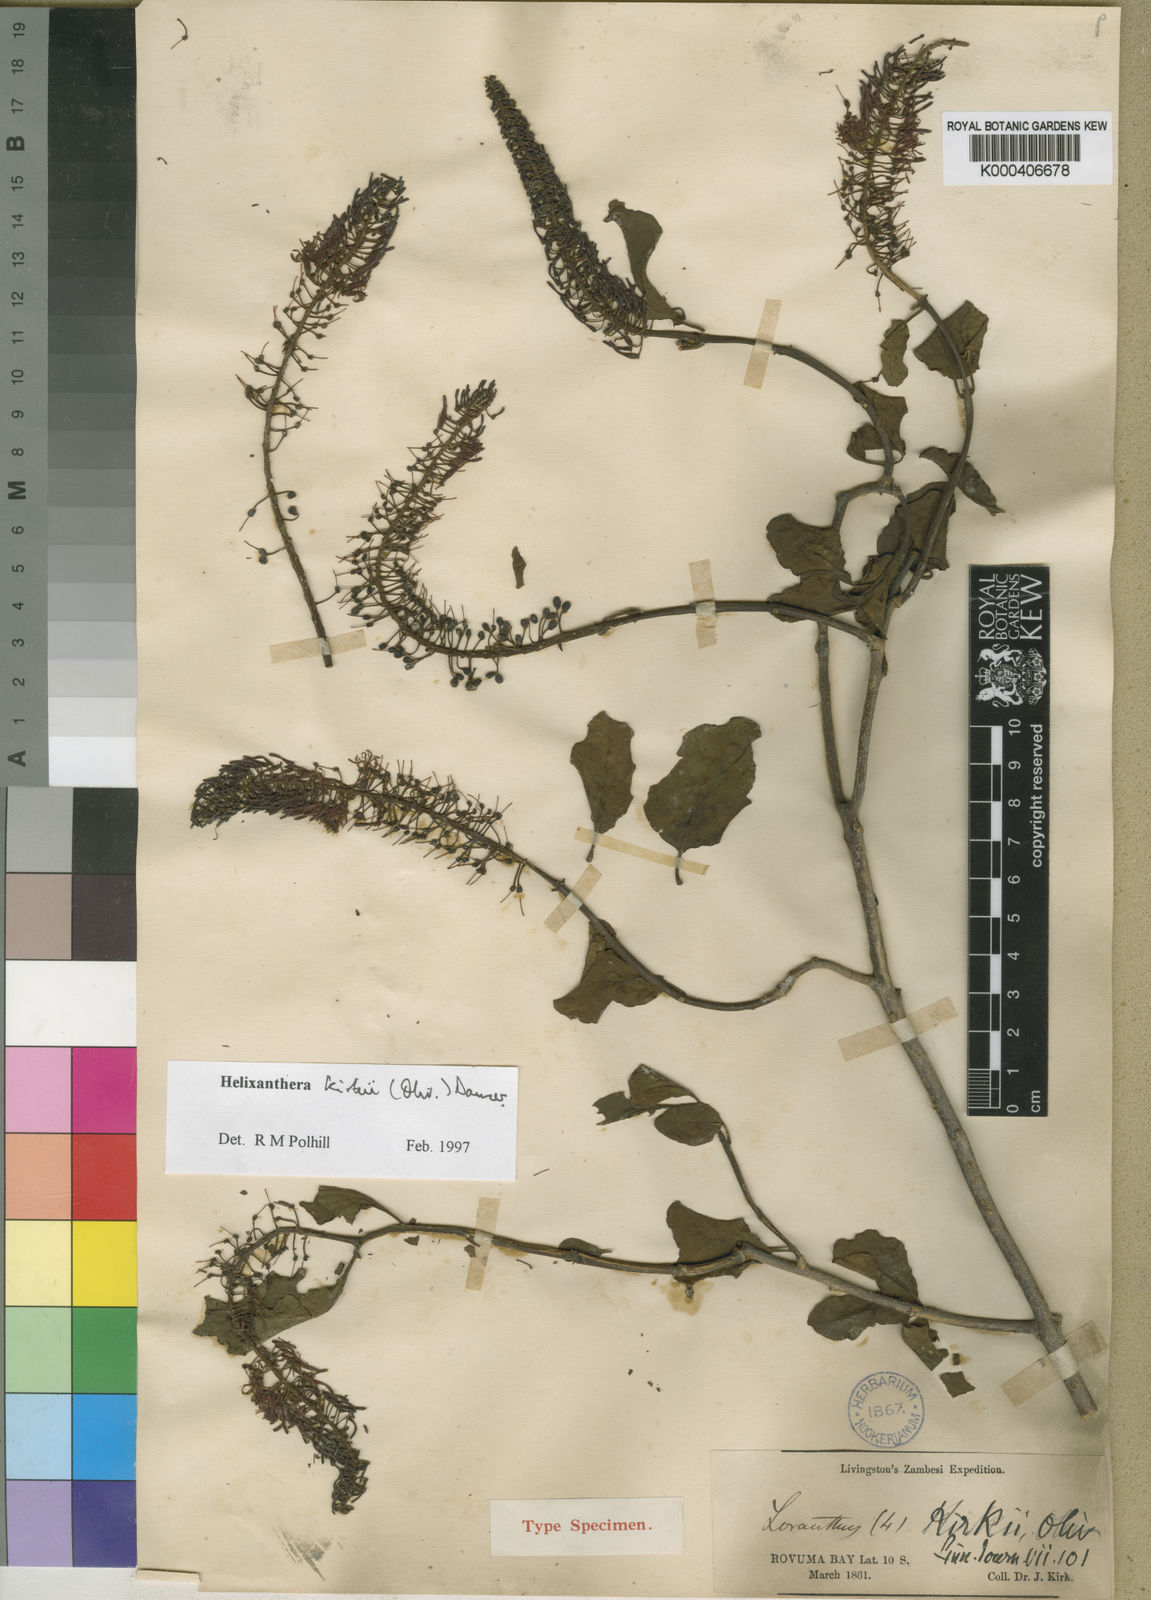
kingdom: Plantae
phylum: Tracheophyta
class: Magnoliopsida
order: Santalales
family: Loranthaceae
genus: Helixanthera
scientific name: Helixanthera kirkii
